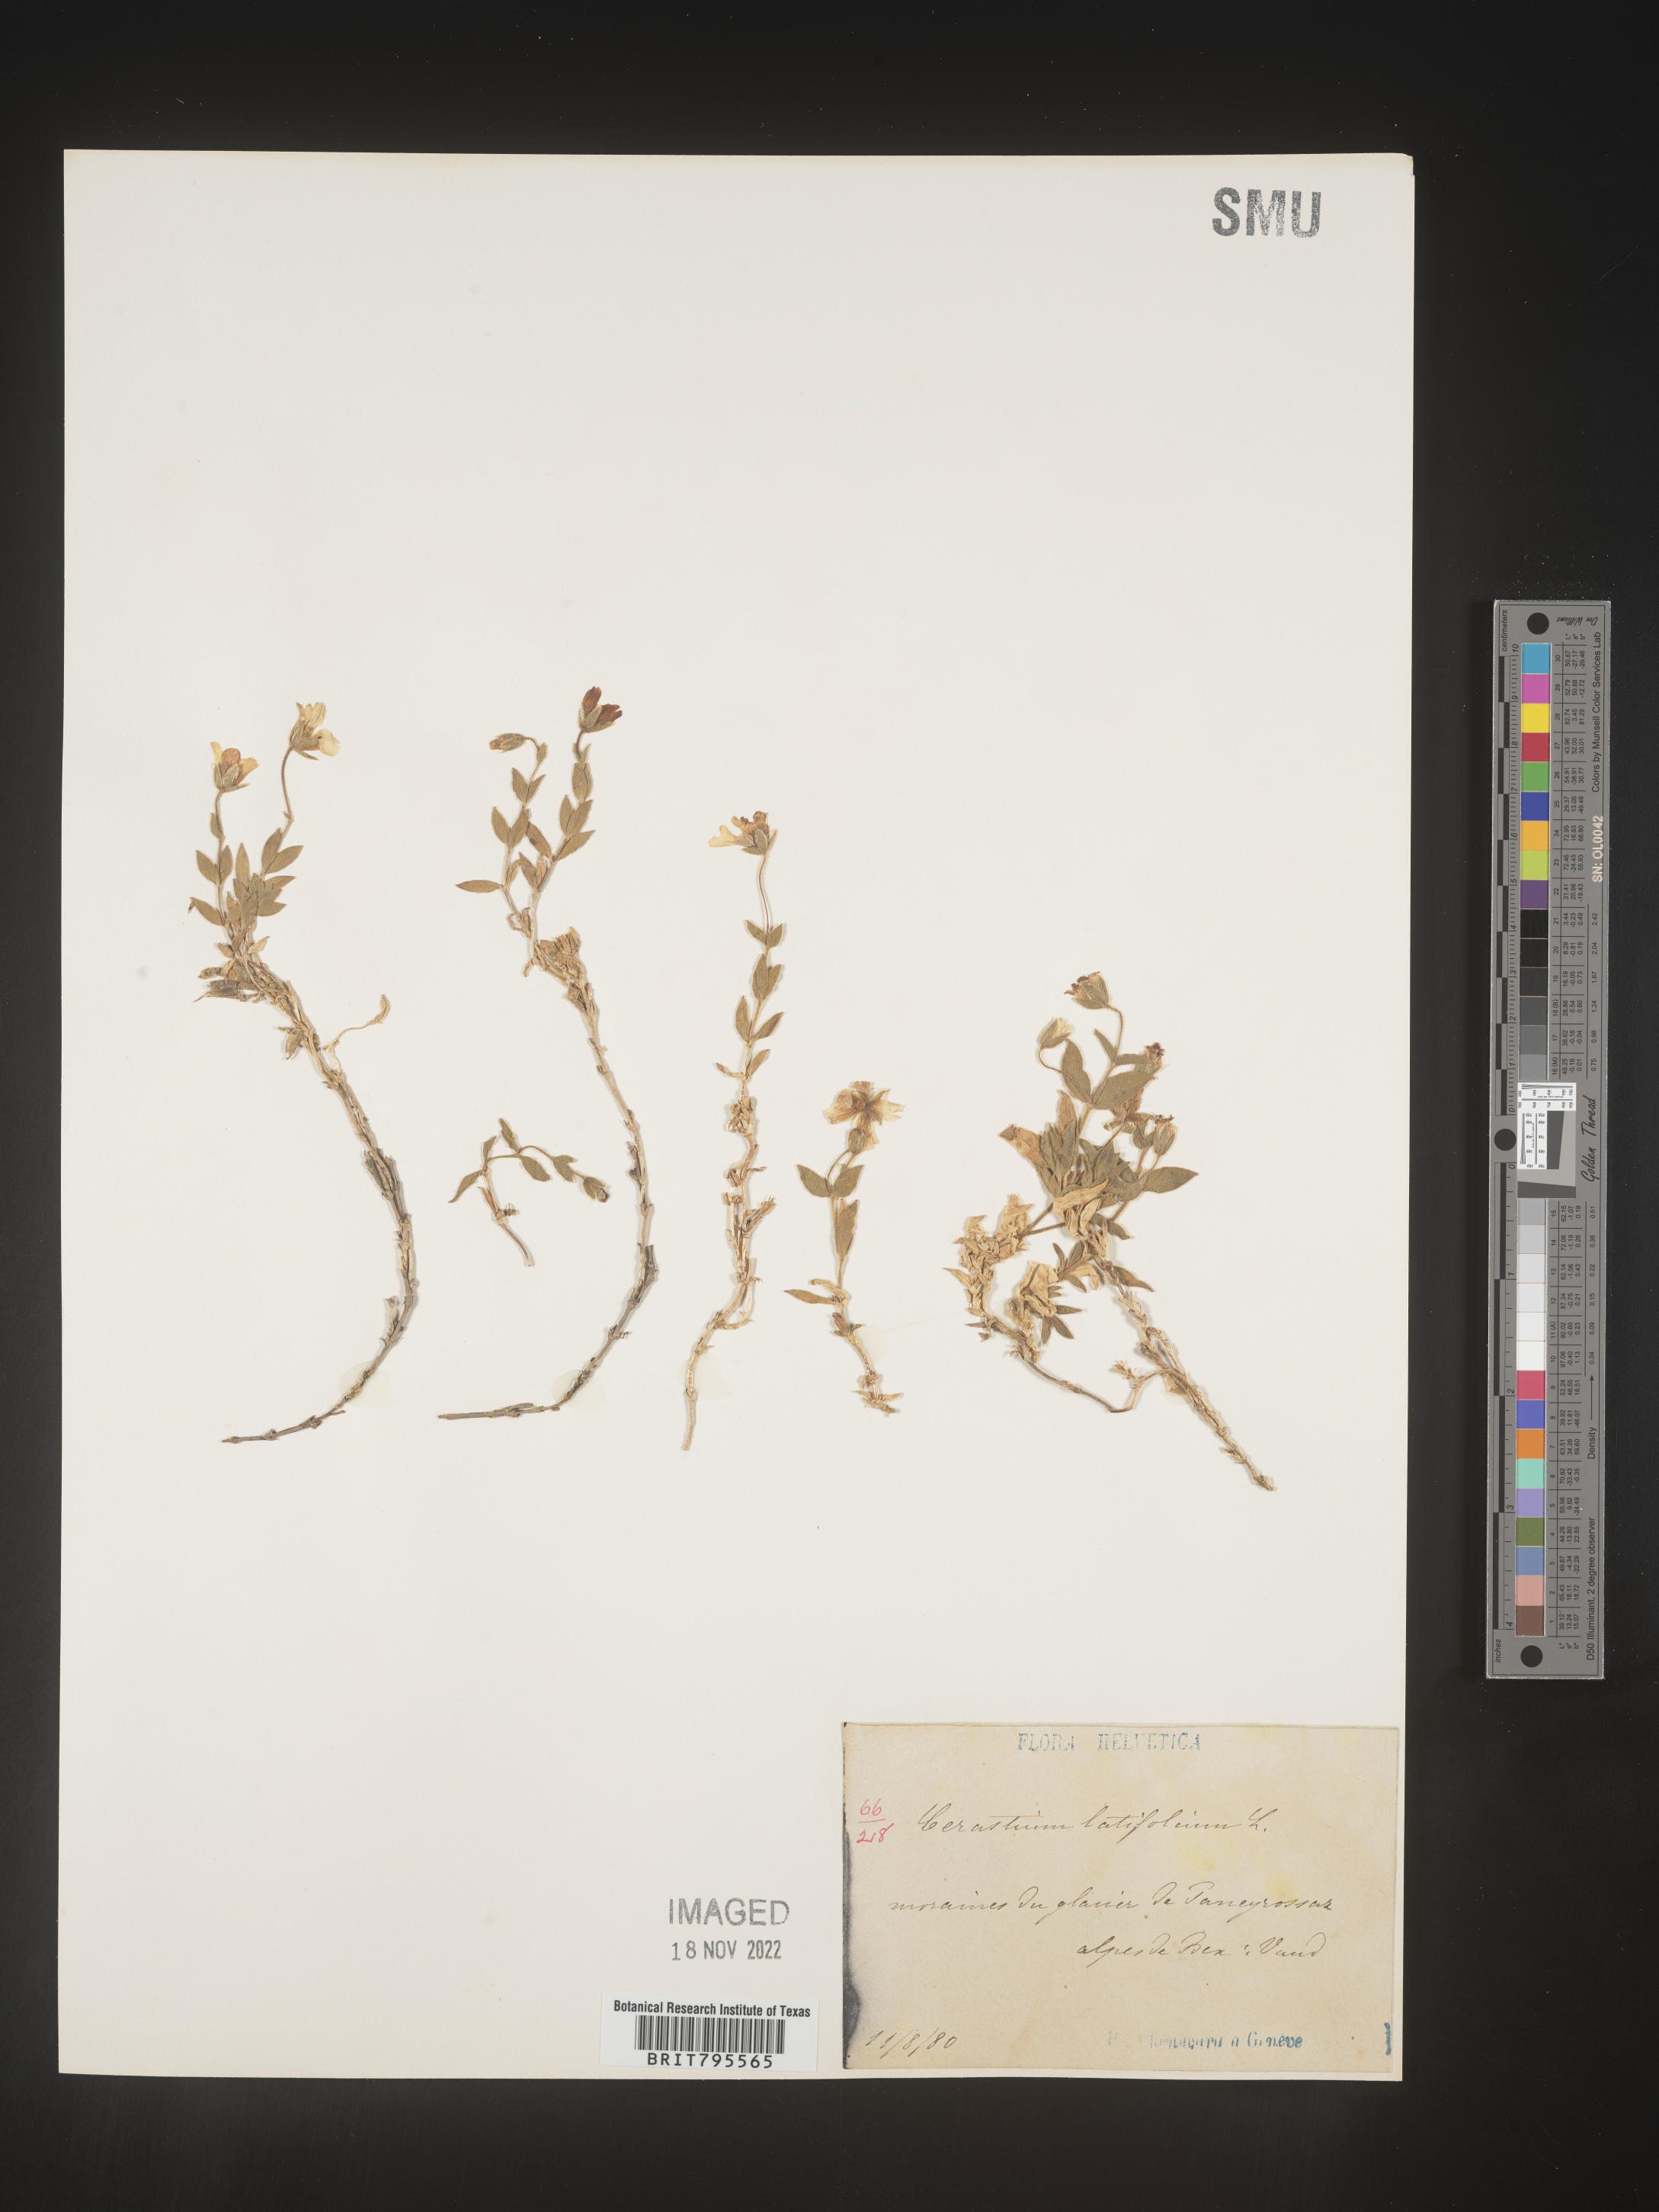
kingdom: Plantae
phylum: Tracheophyta
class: Magnoliopsida
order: Caryophyllales
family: Caryophyllaceae
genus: Cerastium
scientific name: Cerastium
